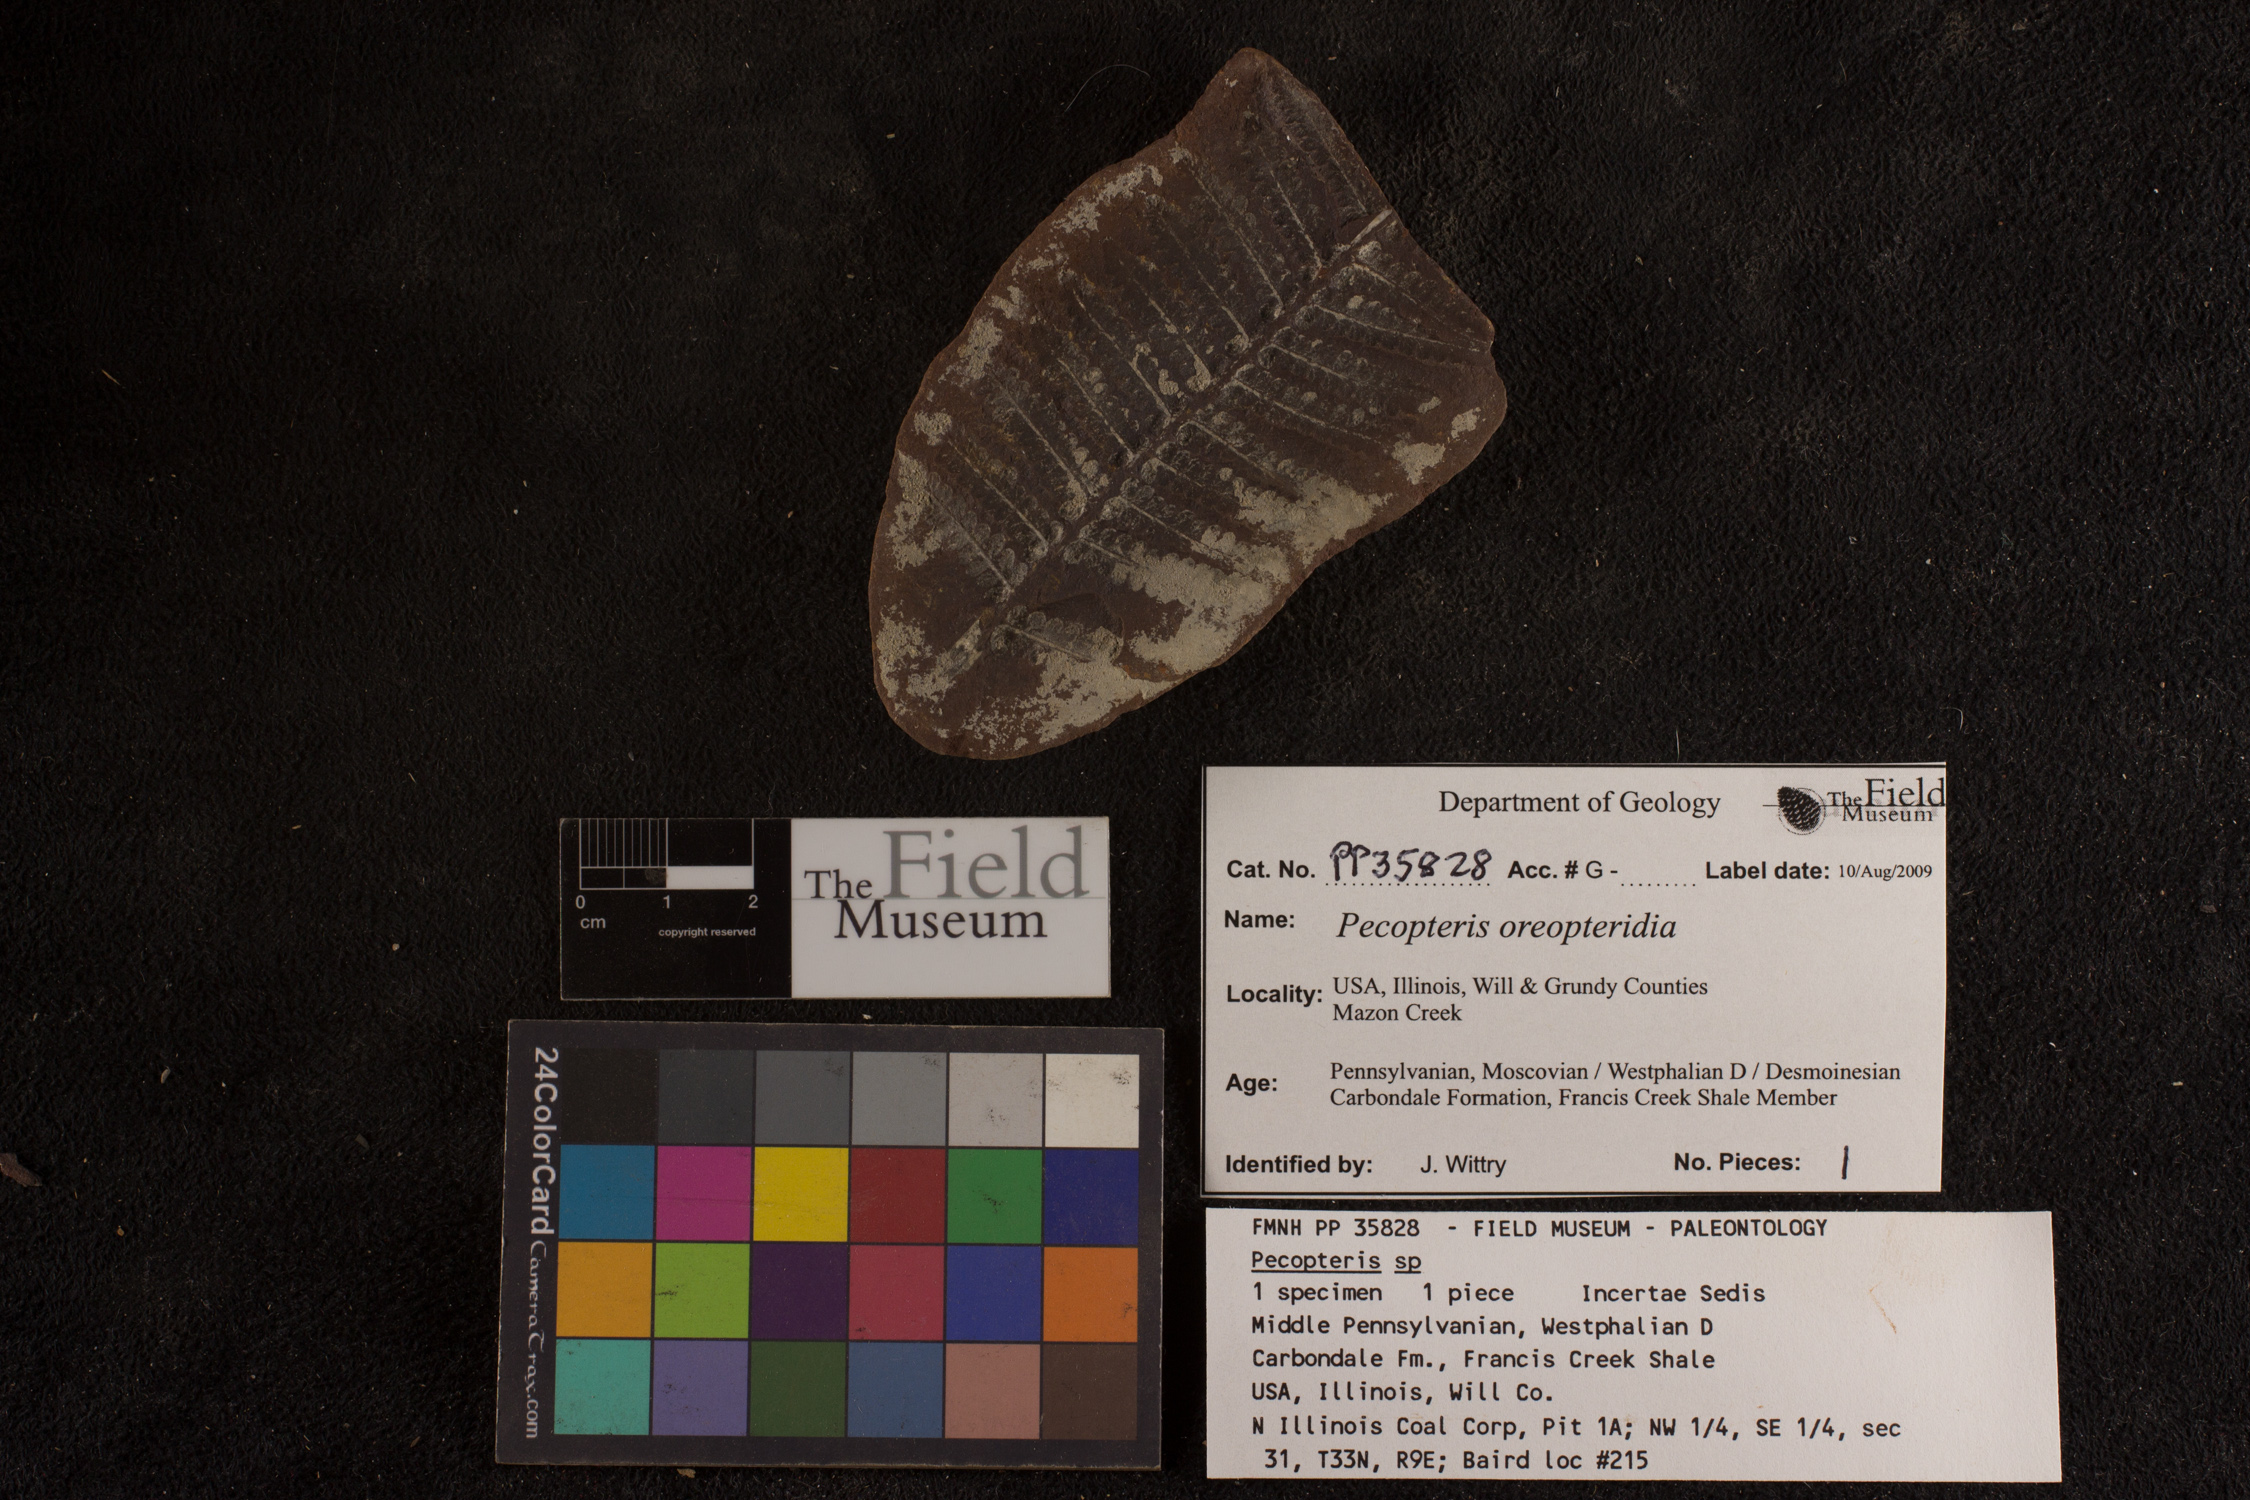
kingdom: Plantae
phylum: Tracheophyta
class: Polypodiopsida
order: Marattiales
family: Asterothecaceae
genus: Pecopteris
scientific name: Pecopteris
